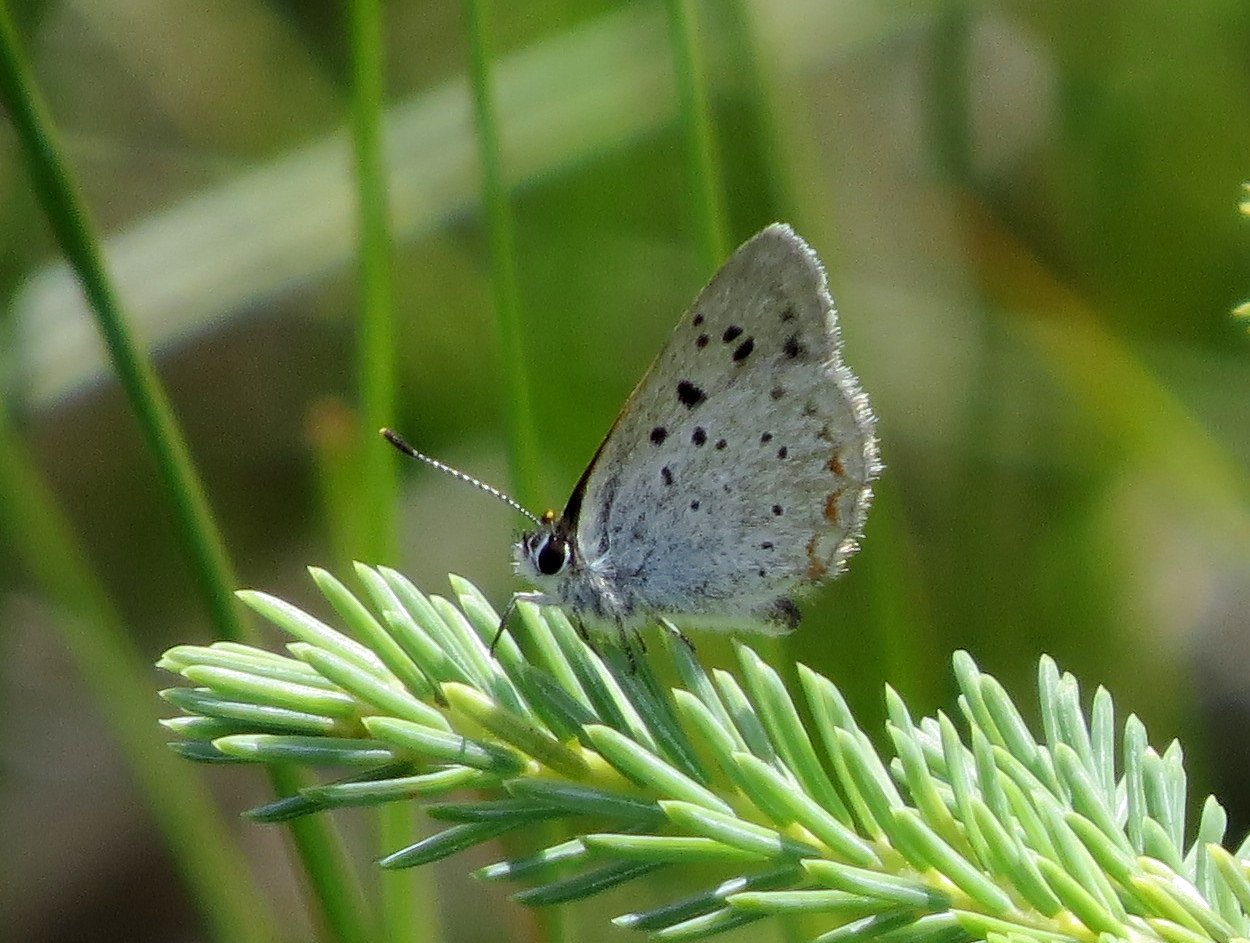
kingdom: Animalia
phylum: Arthropoda
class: Insecta
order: Lepidoptera
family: Sesiidae
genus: Sesia
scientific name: Sesia Lycaena epixanthe
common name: Bog Copper
